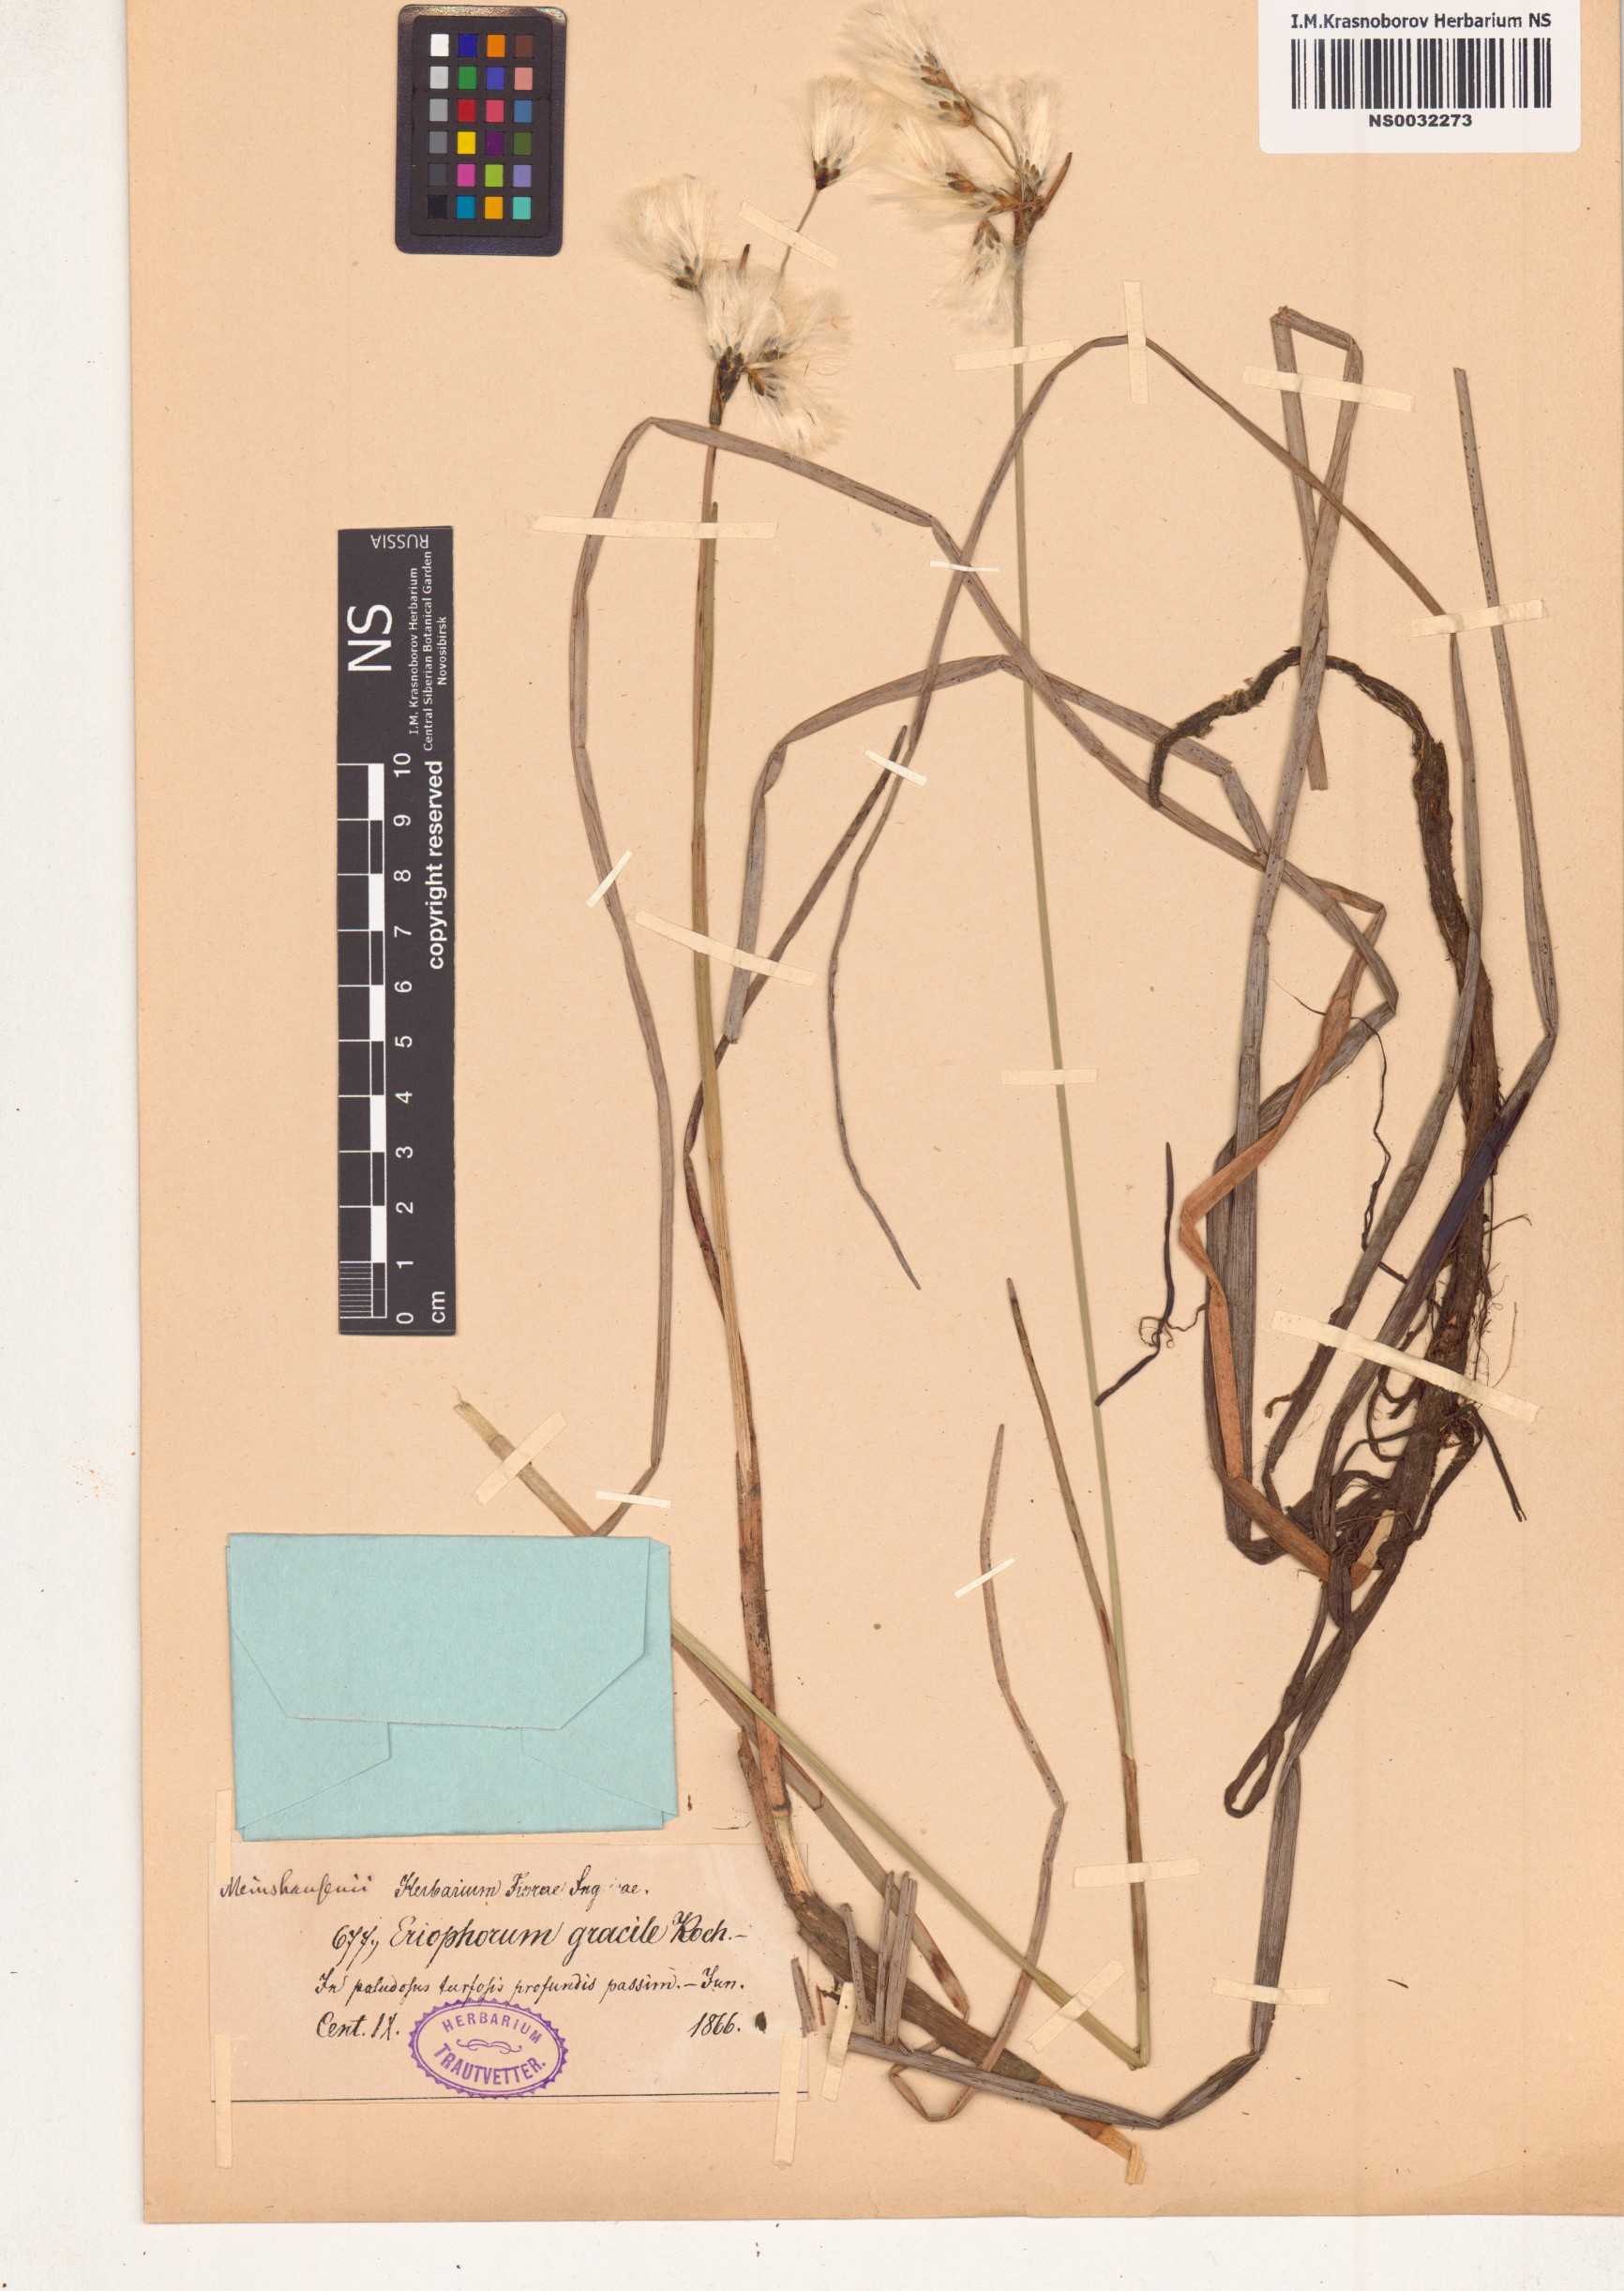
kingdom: Plantae
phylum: Tracheophyta
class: Liliopsida
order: Poales
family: Cyperaceae
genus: Eriophorum
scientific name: Eriophorum gracile
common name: Slender cottongrass
